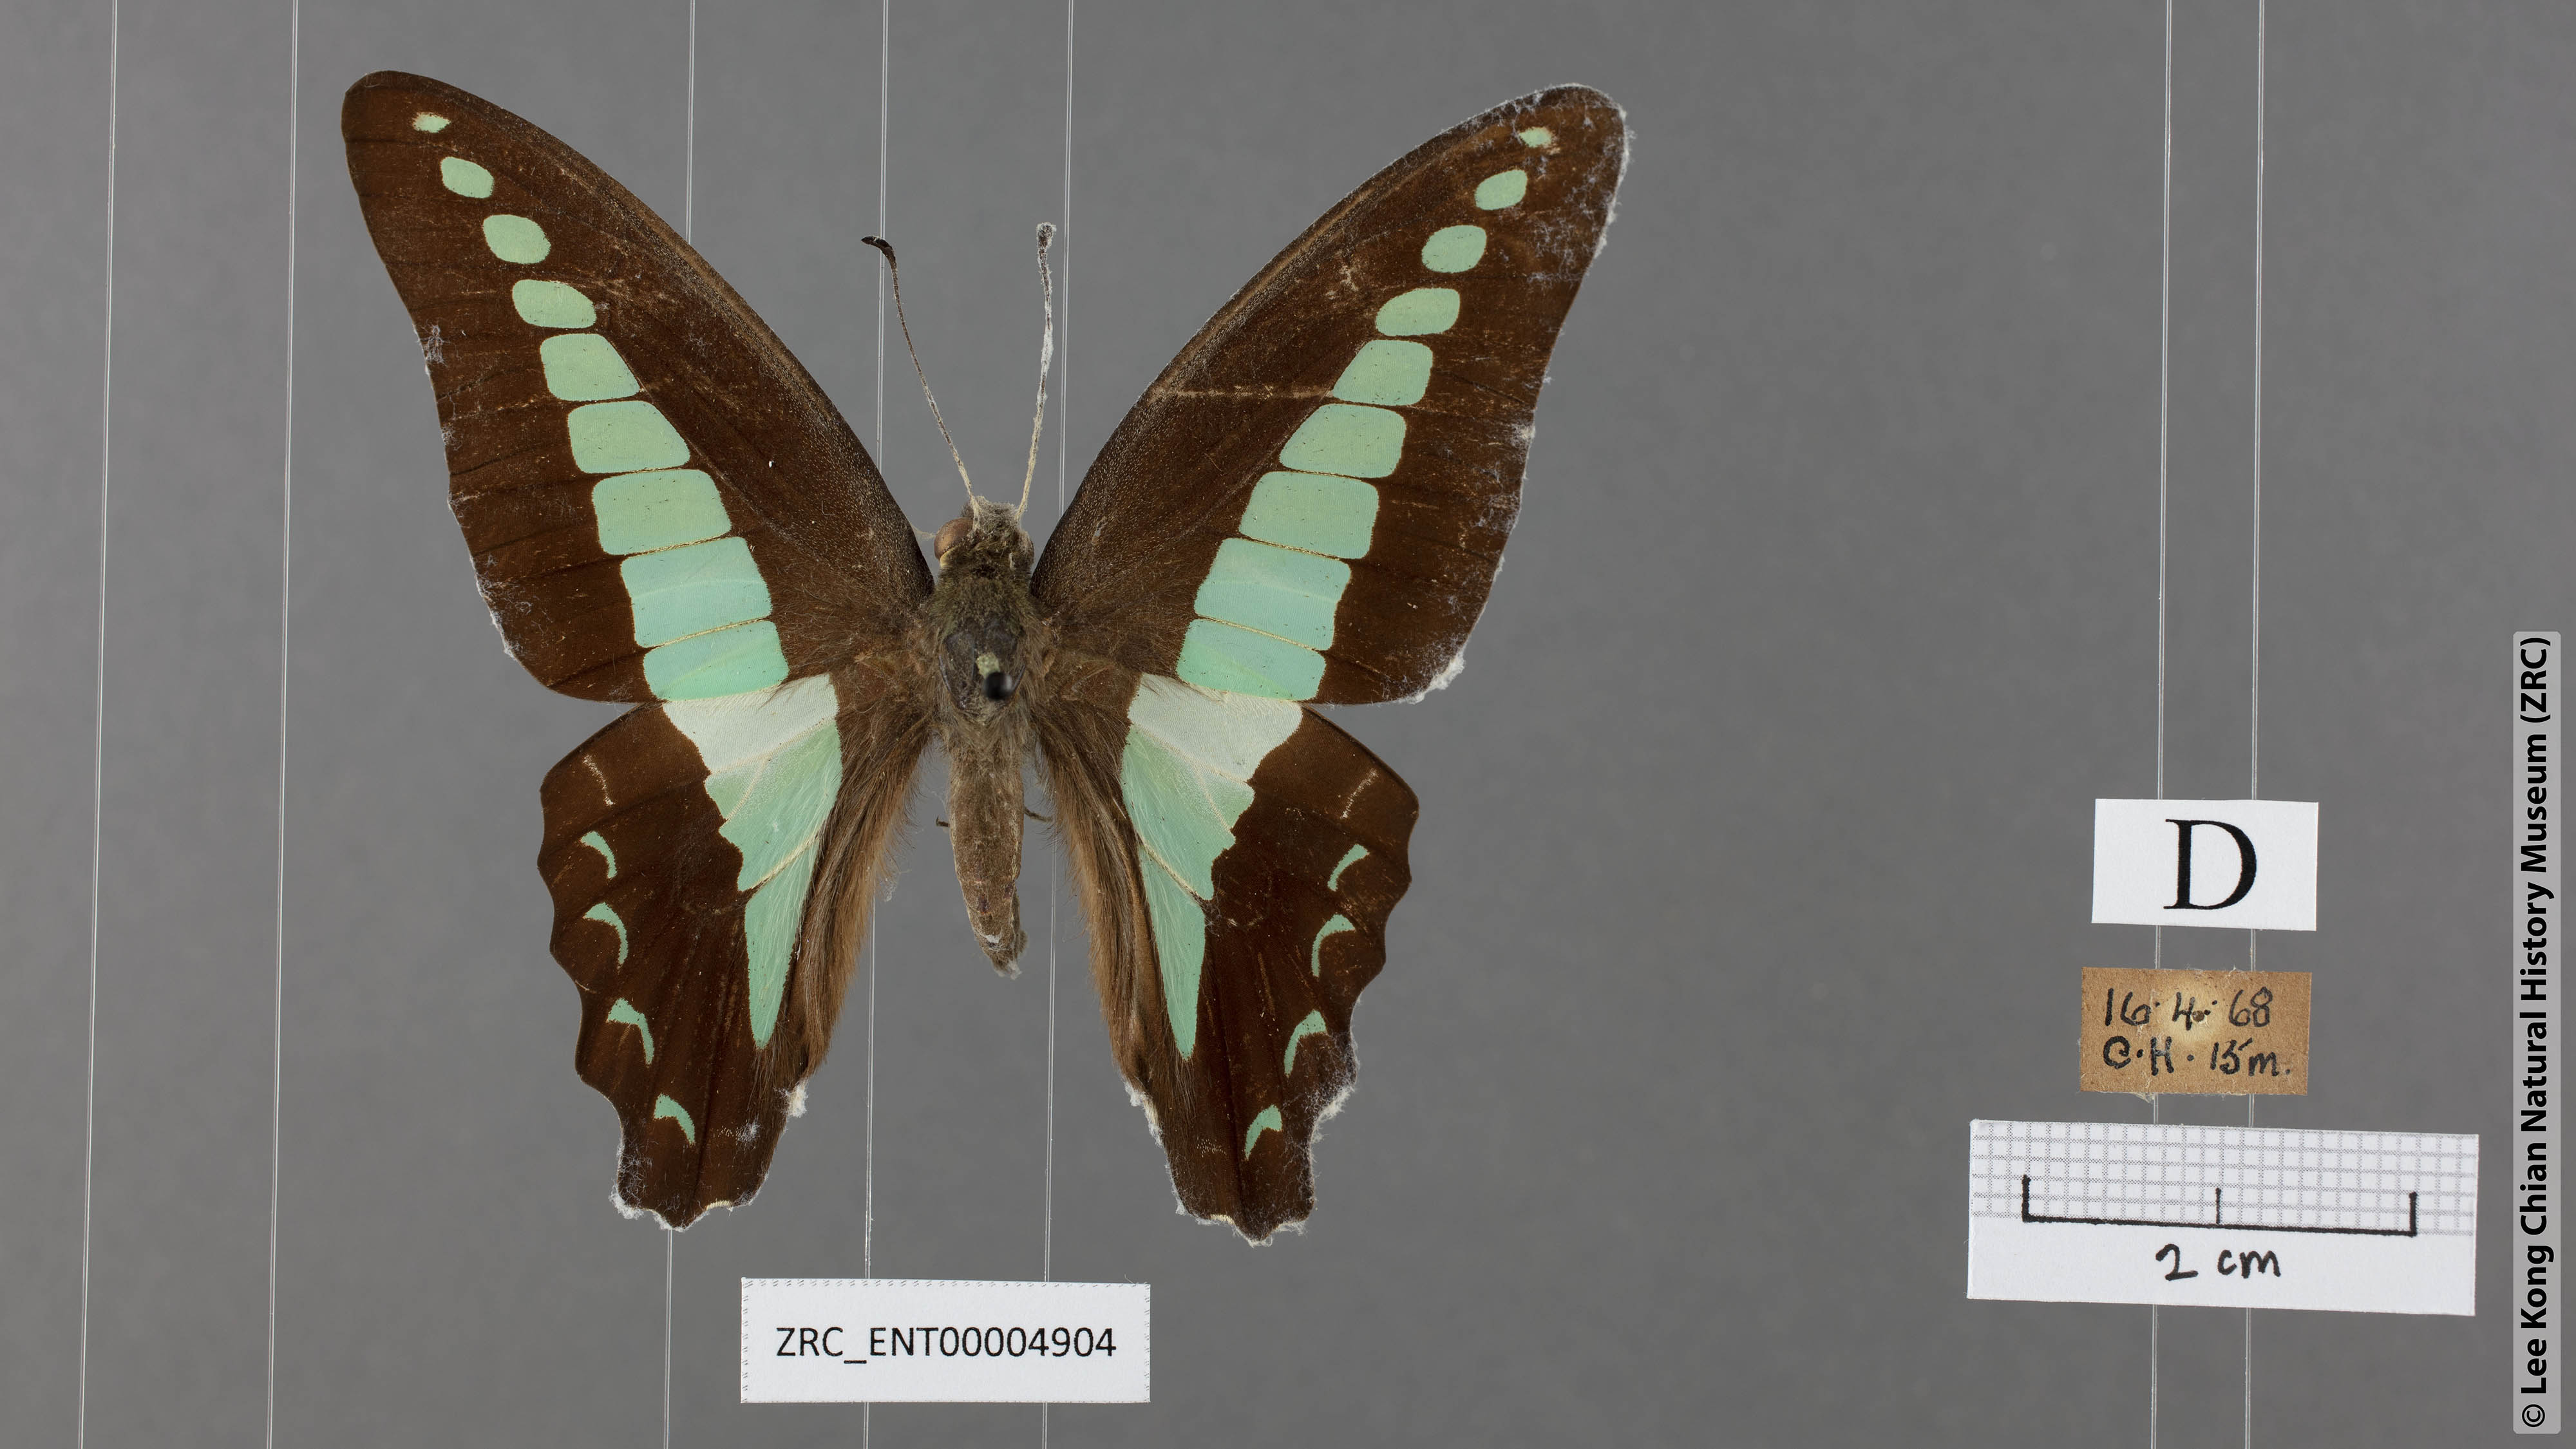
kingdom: Fungi
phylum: Ascomycota
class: Sordariomycetes
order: Microascales
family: Microascaceae
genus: Graphium
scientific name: Graphium sarpedon
